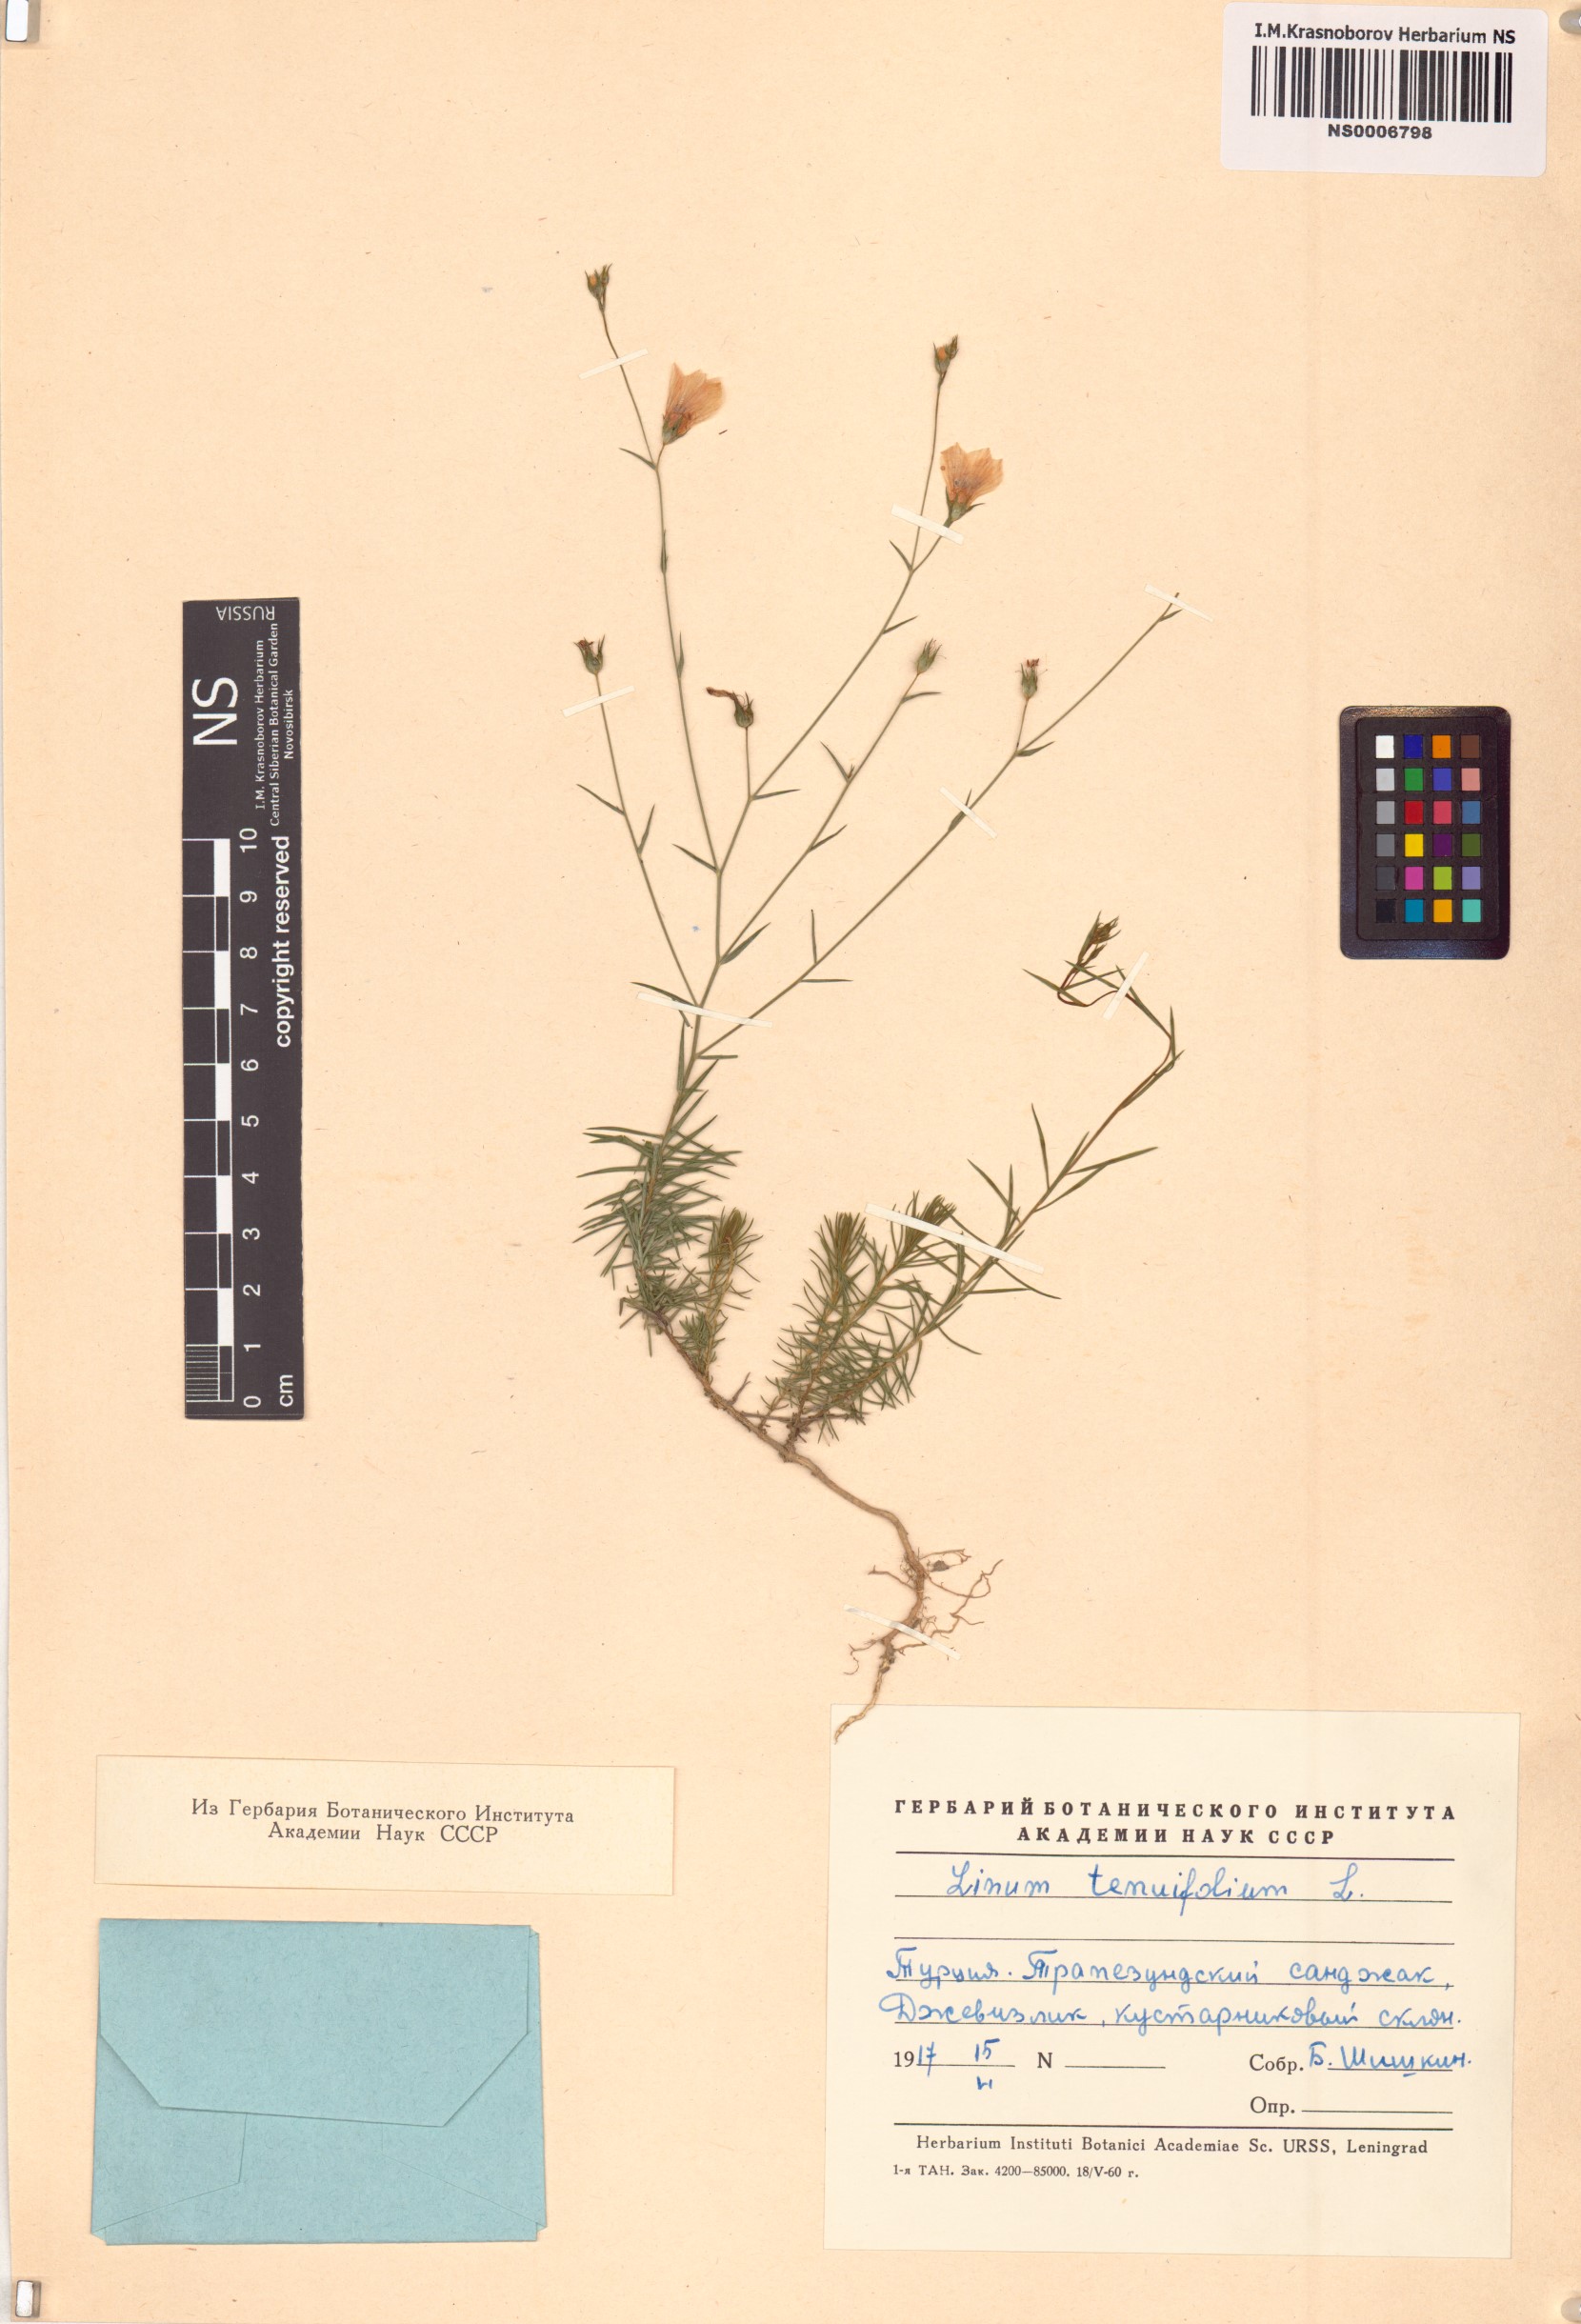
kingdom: Plantae
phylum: Tracheophyta
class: Magnoliopsida
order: Malpighiales
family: Linaceae
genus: Linum
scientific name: Linum tenuifolium
